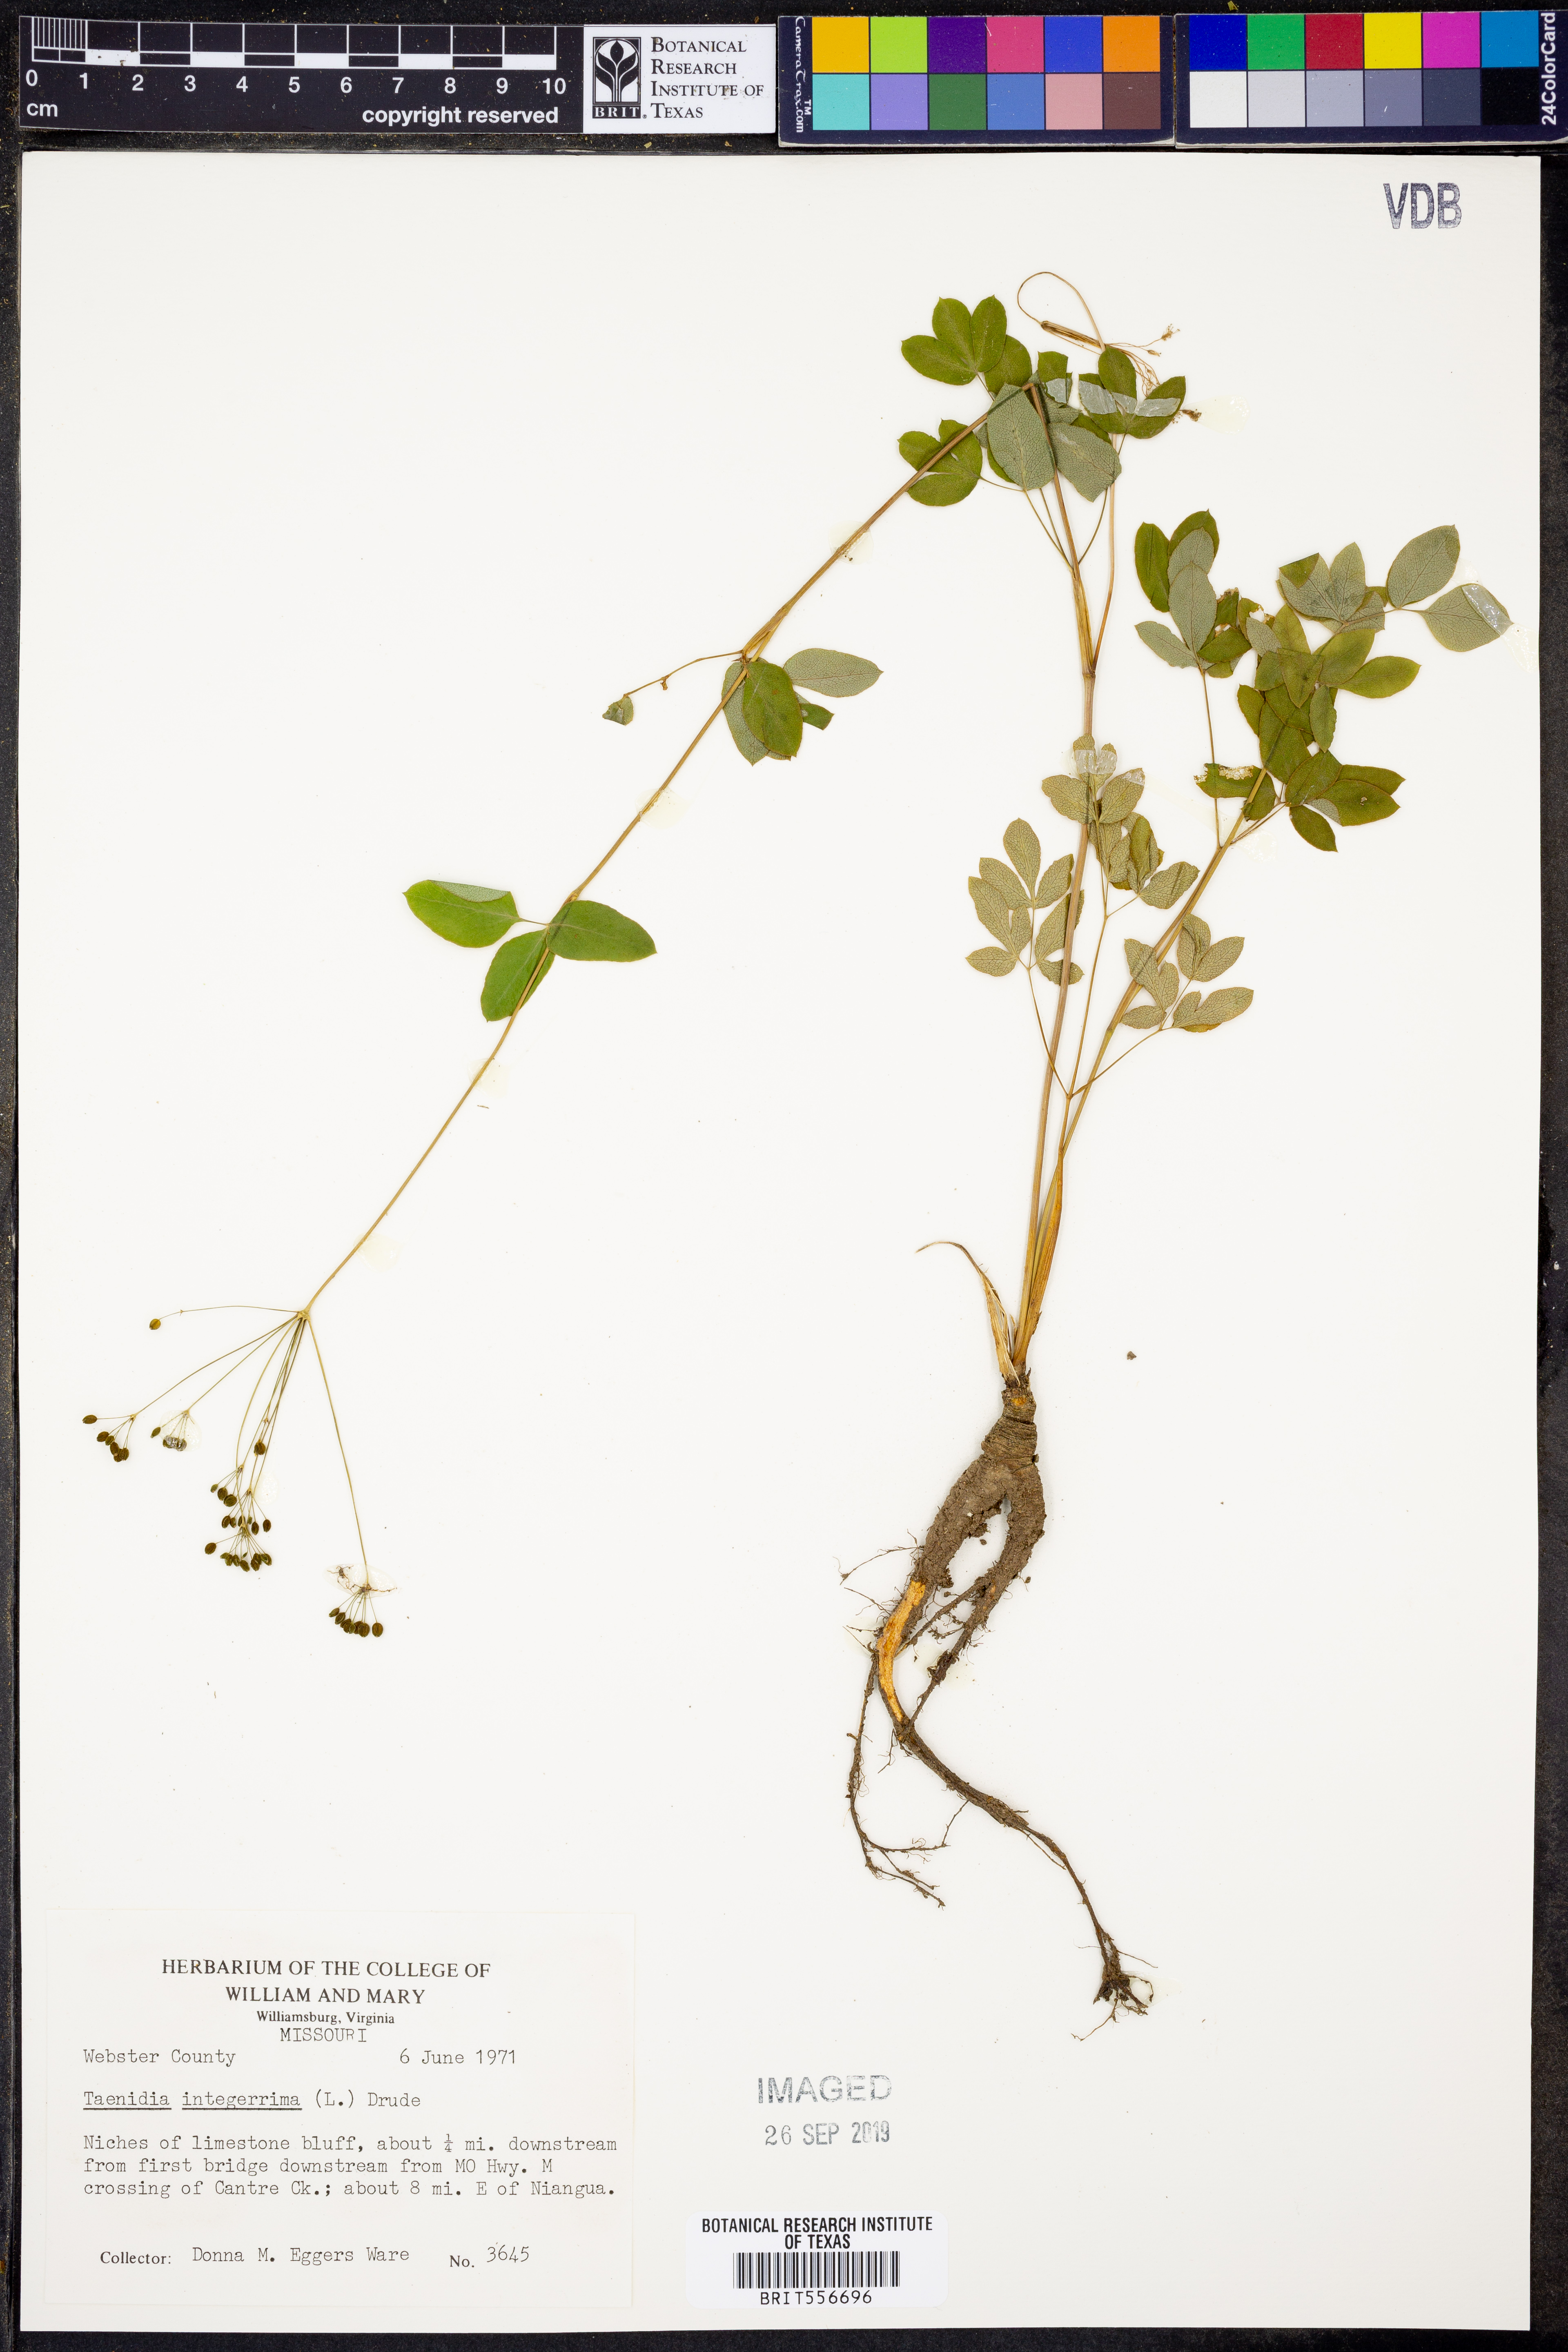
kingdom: Plantae
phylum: Tracheophyta
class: Magnoliopsida
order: Apiales
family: Apiaceae
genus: Taenidia
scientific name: Taenidia integerrima
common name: Golden alexander
